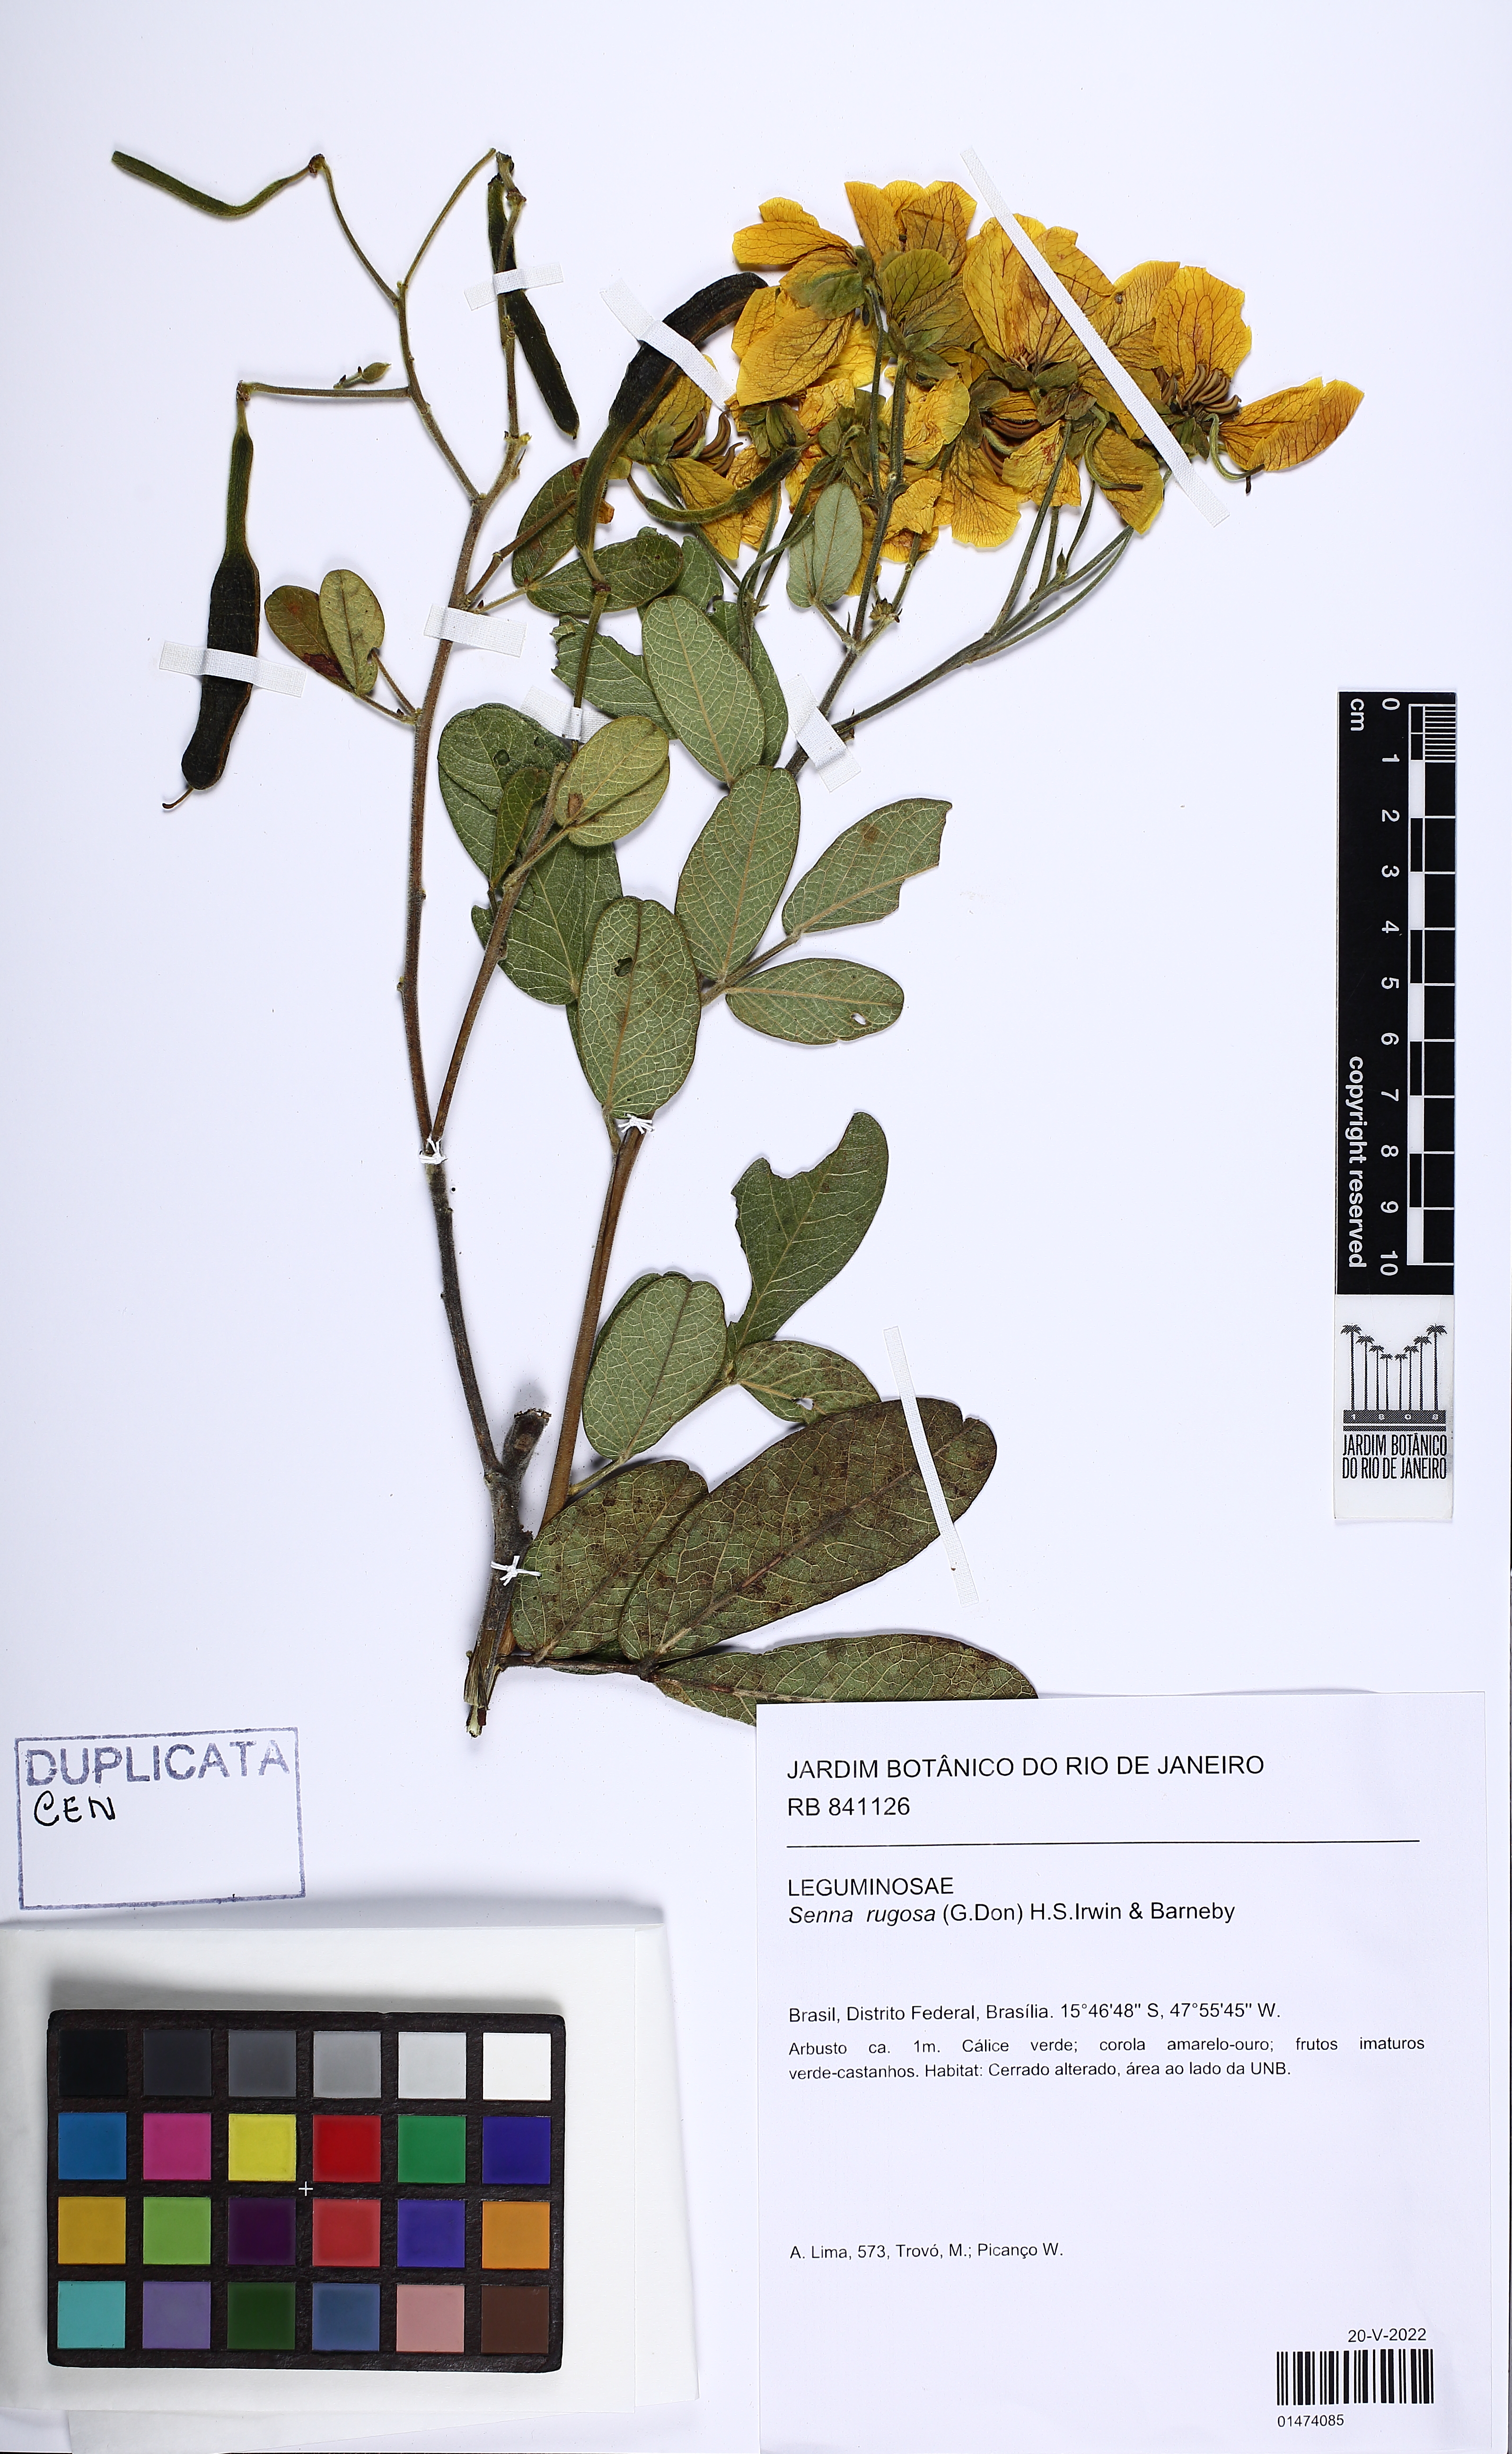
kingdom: Plantae
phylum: Tracheophyta
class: Magnoliopsida
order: Fabales
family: Fabaceae
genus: Senna
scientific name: Senna rugosa
